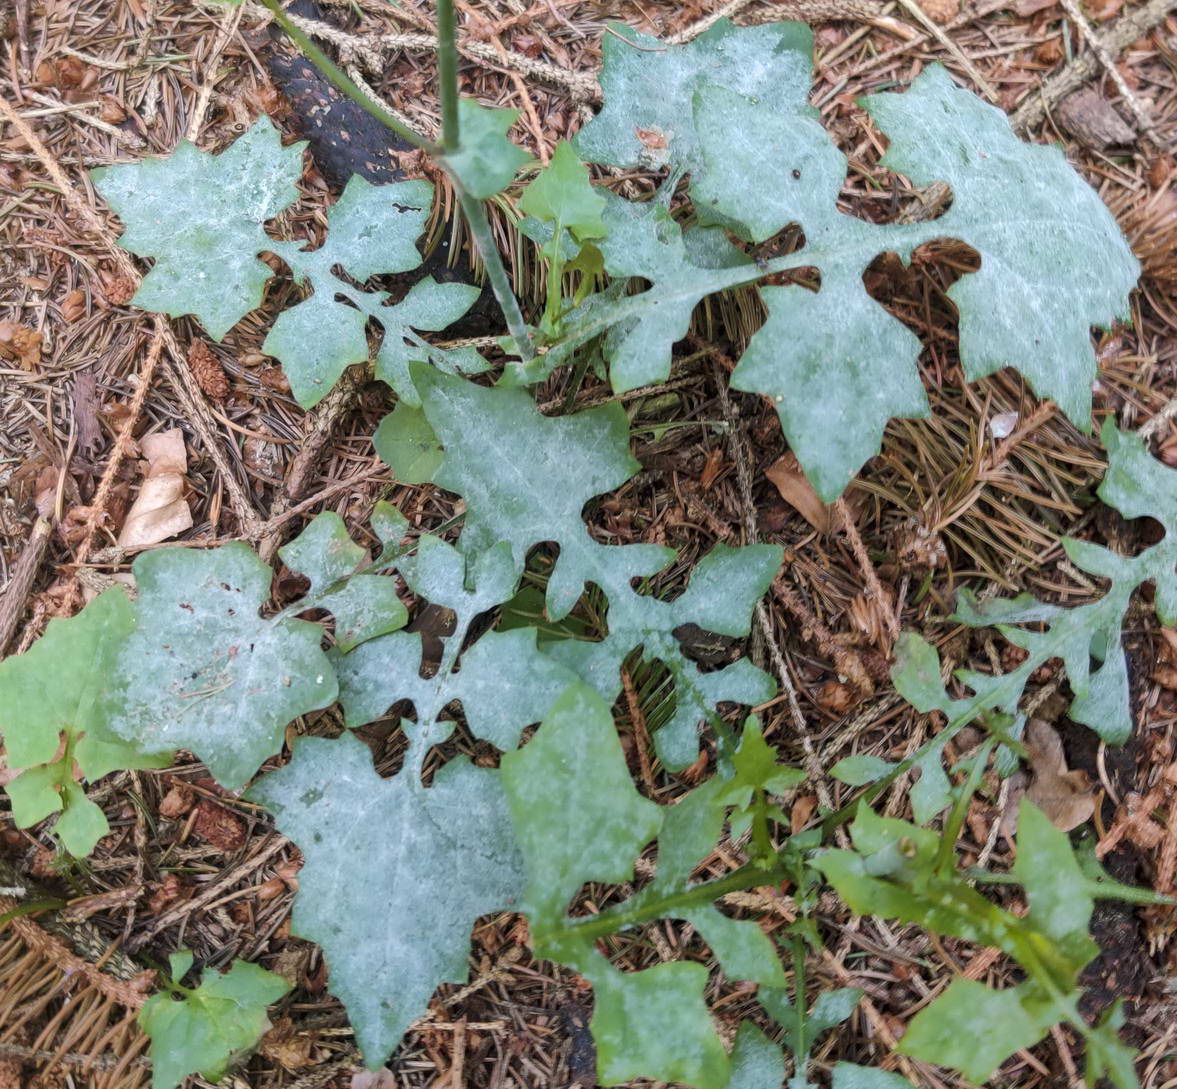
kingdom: Fungi
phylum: Ascomycota
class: Leotiomycetes
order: Helotiales
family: Erysiphaceae
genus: Golovinomyces
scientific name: Golovinomyces cichoracearum
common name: kurvblomst-meldug
